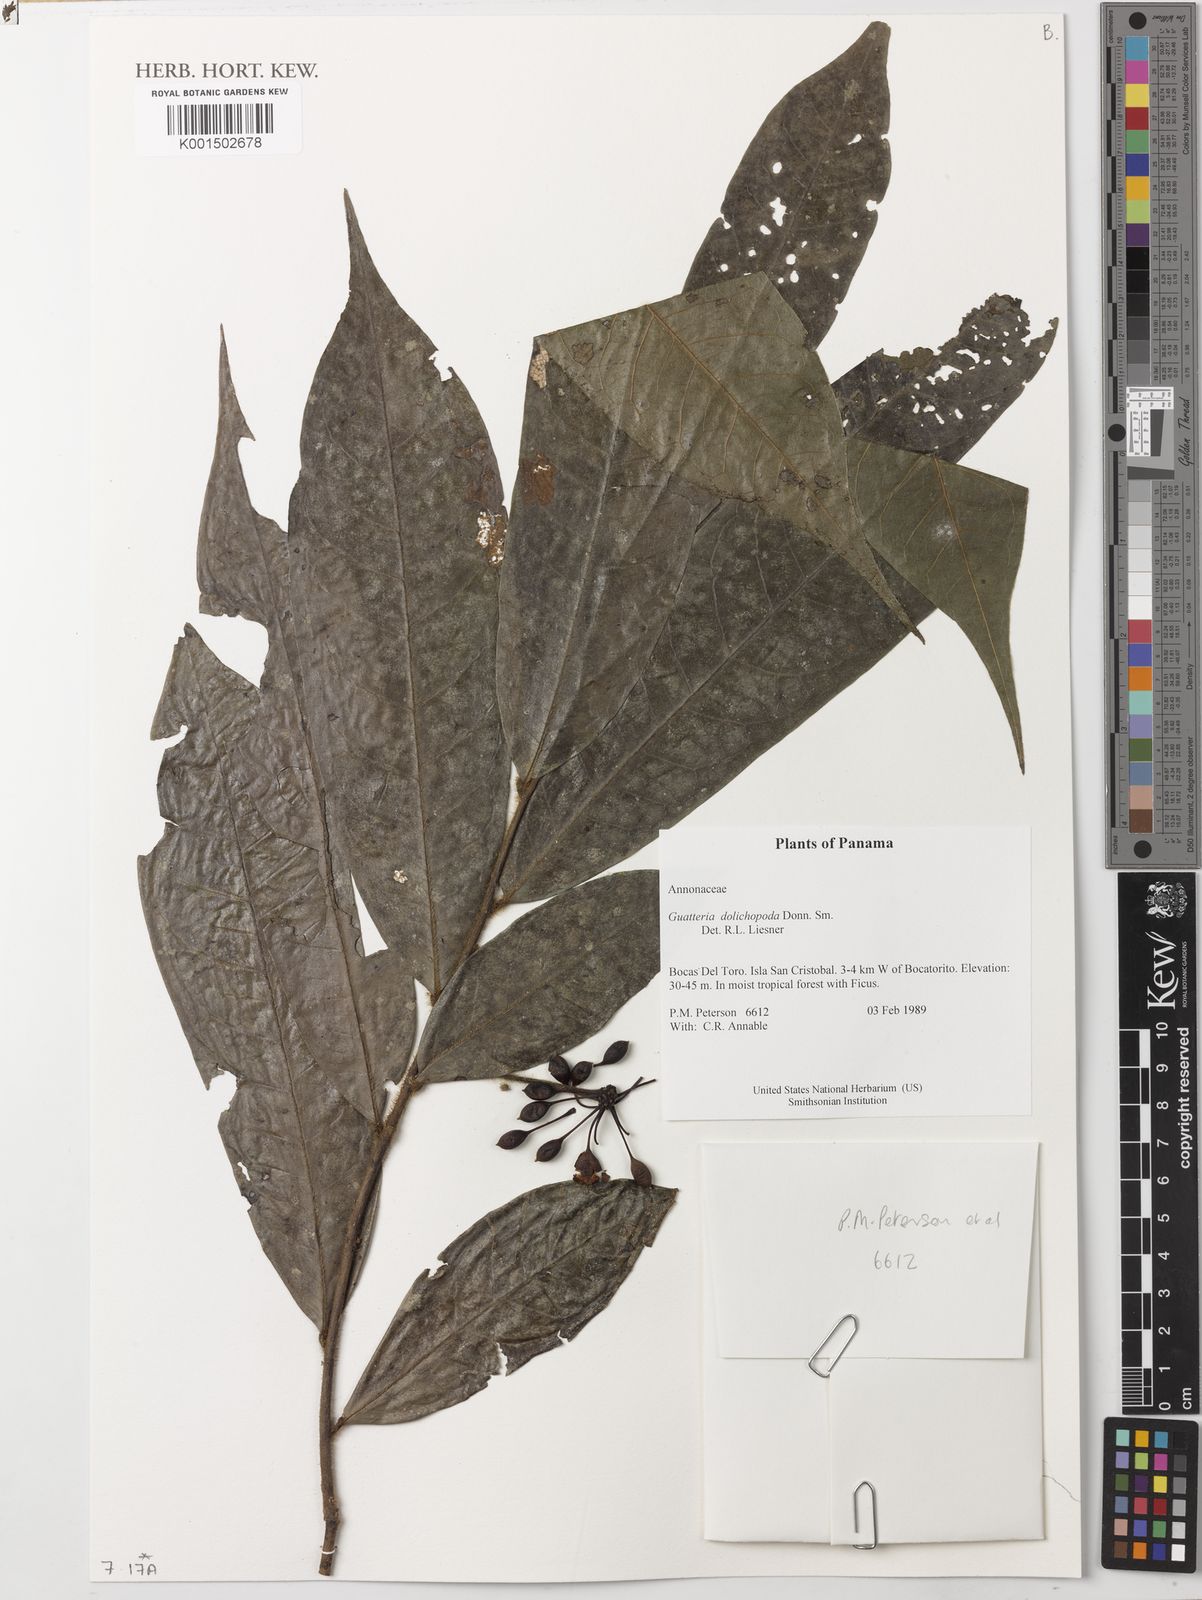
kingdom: Plantae
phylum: Tracheophyta
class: Magnoliopsida
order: Magnoliales
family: Annonaceae
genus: Guatteria
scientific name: Guatteria dolichopoda
